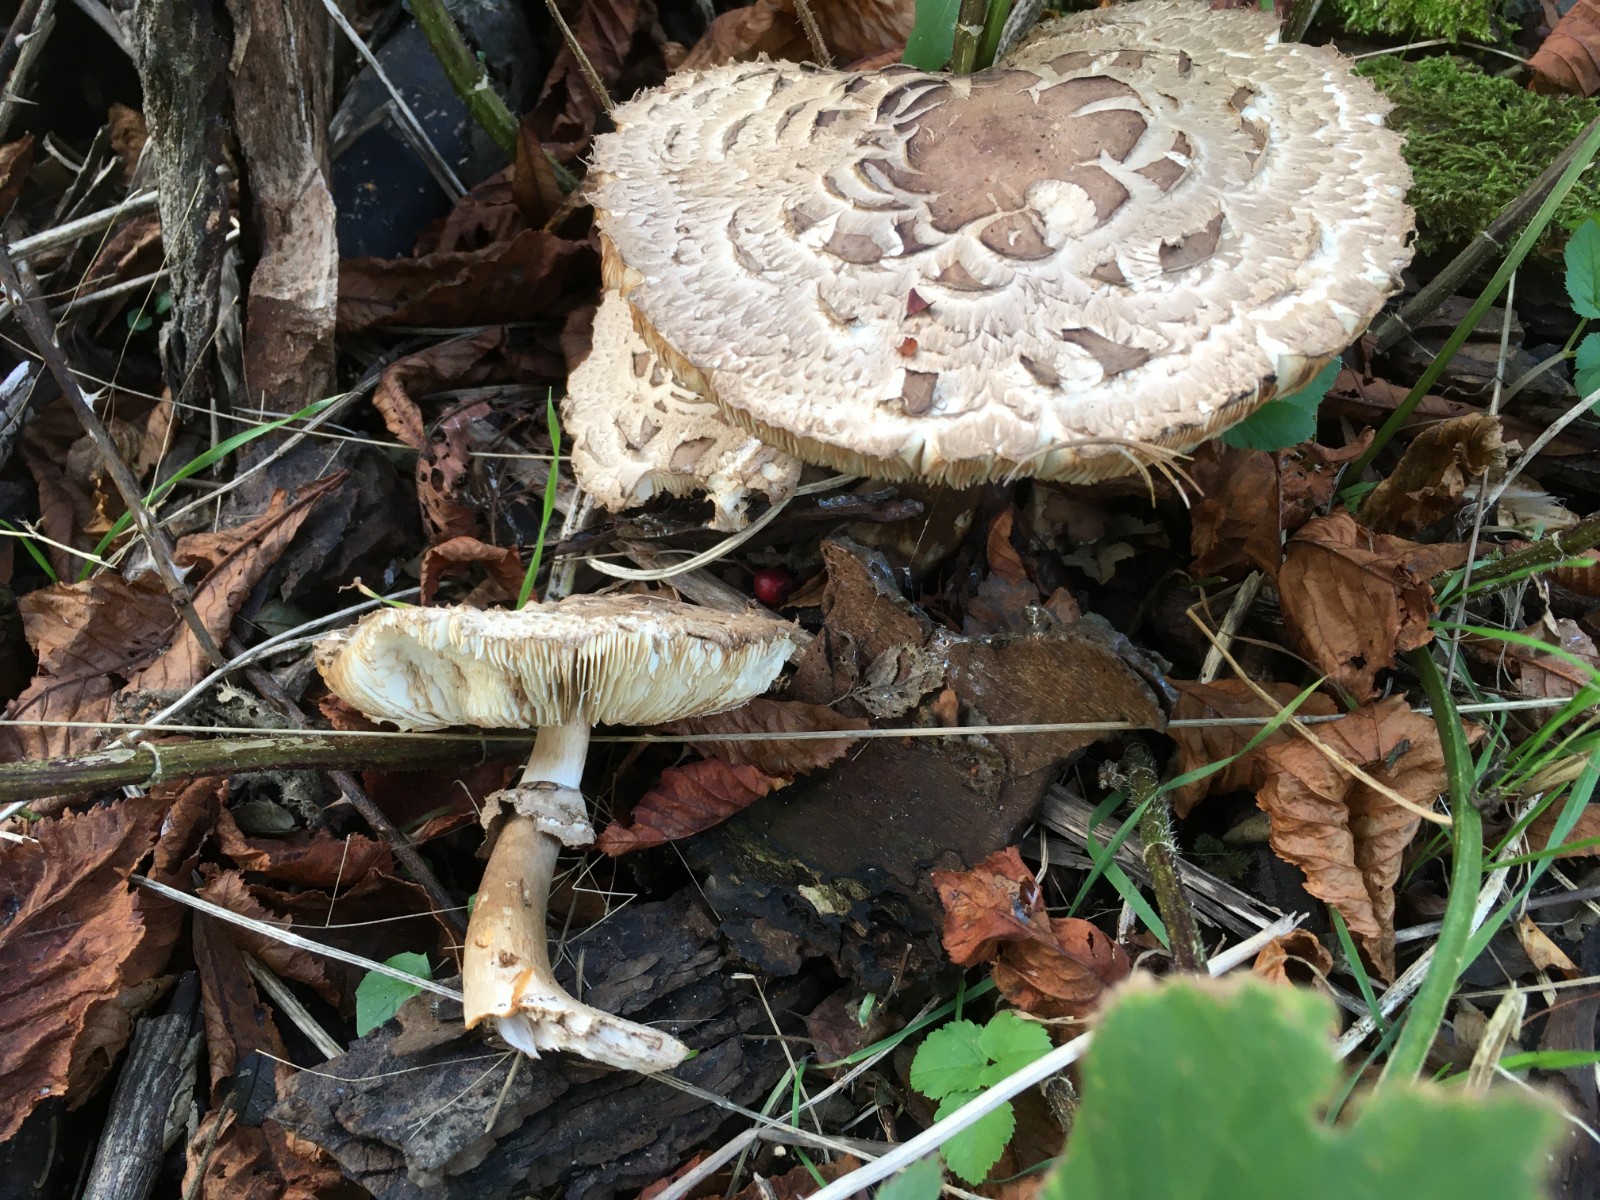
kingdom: Fungi
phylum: Basidiomycota
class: Agaricomycetes
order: Agaricales
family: Agaricaceae
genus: Chlorophyllum
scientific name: Chlorophyllum rhacodes
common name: ægte rabarberhat
